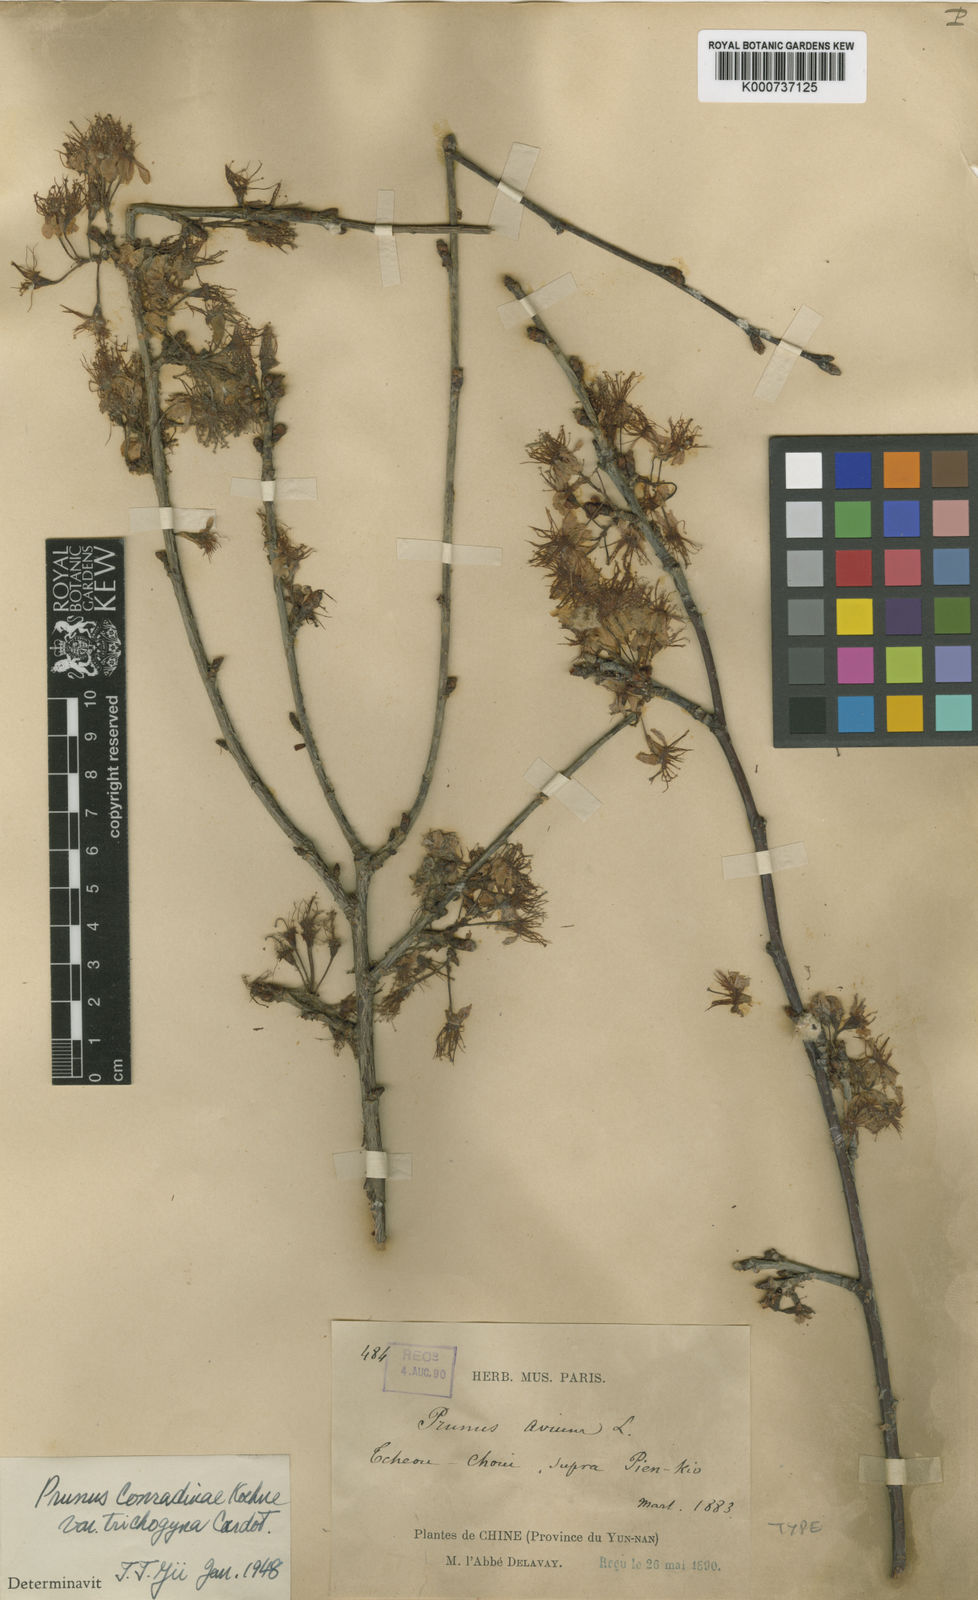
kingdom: Plantae
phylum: Tracheophyta
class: Magnoliopsida
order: Rosales
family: Rosaceae
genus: Prunus
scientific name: Prunus conradinae
